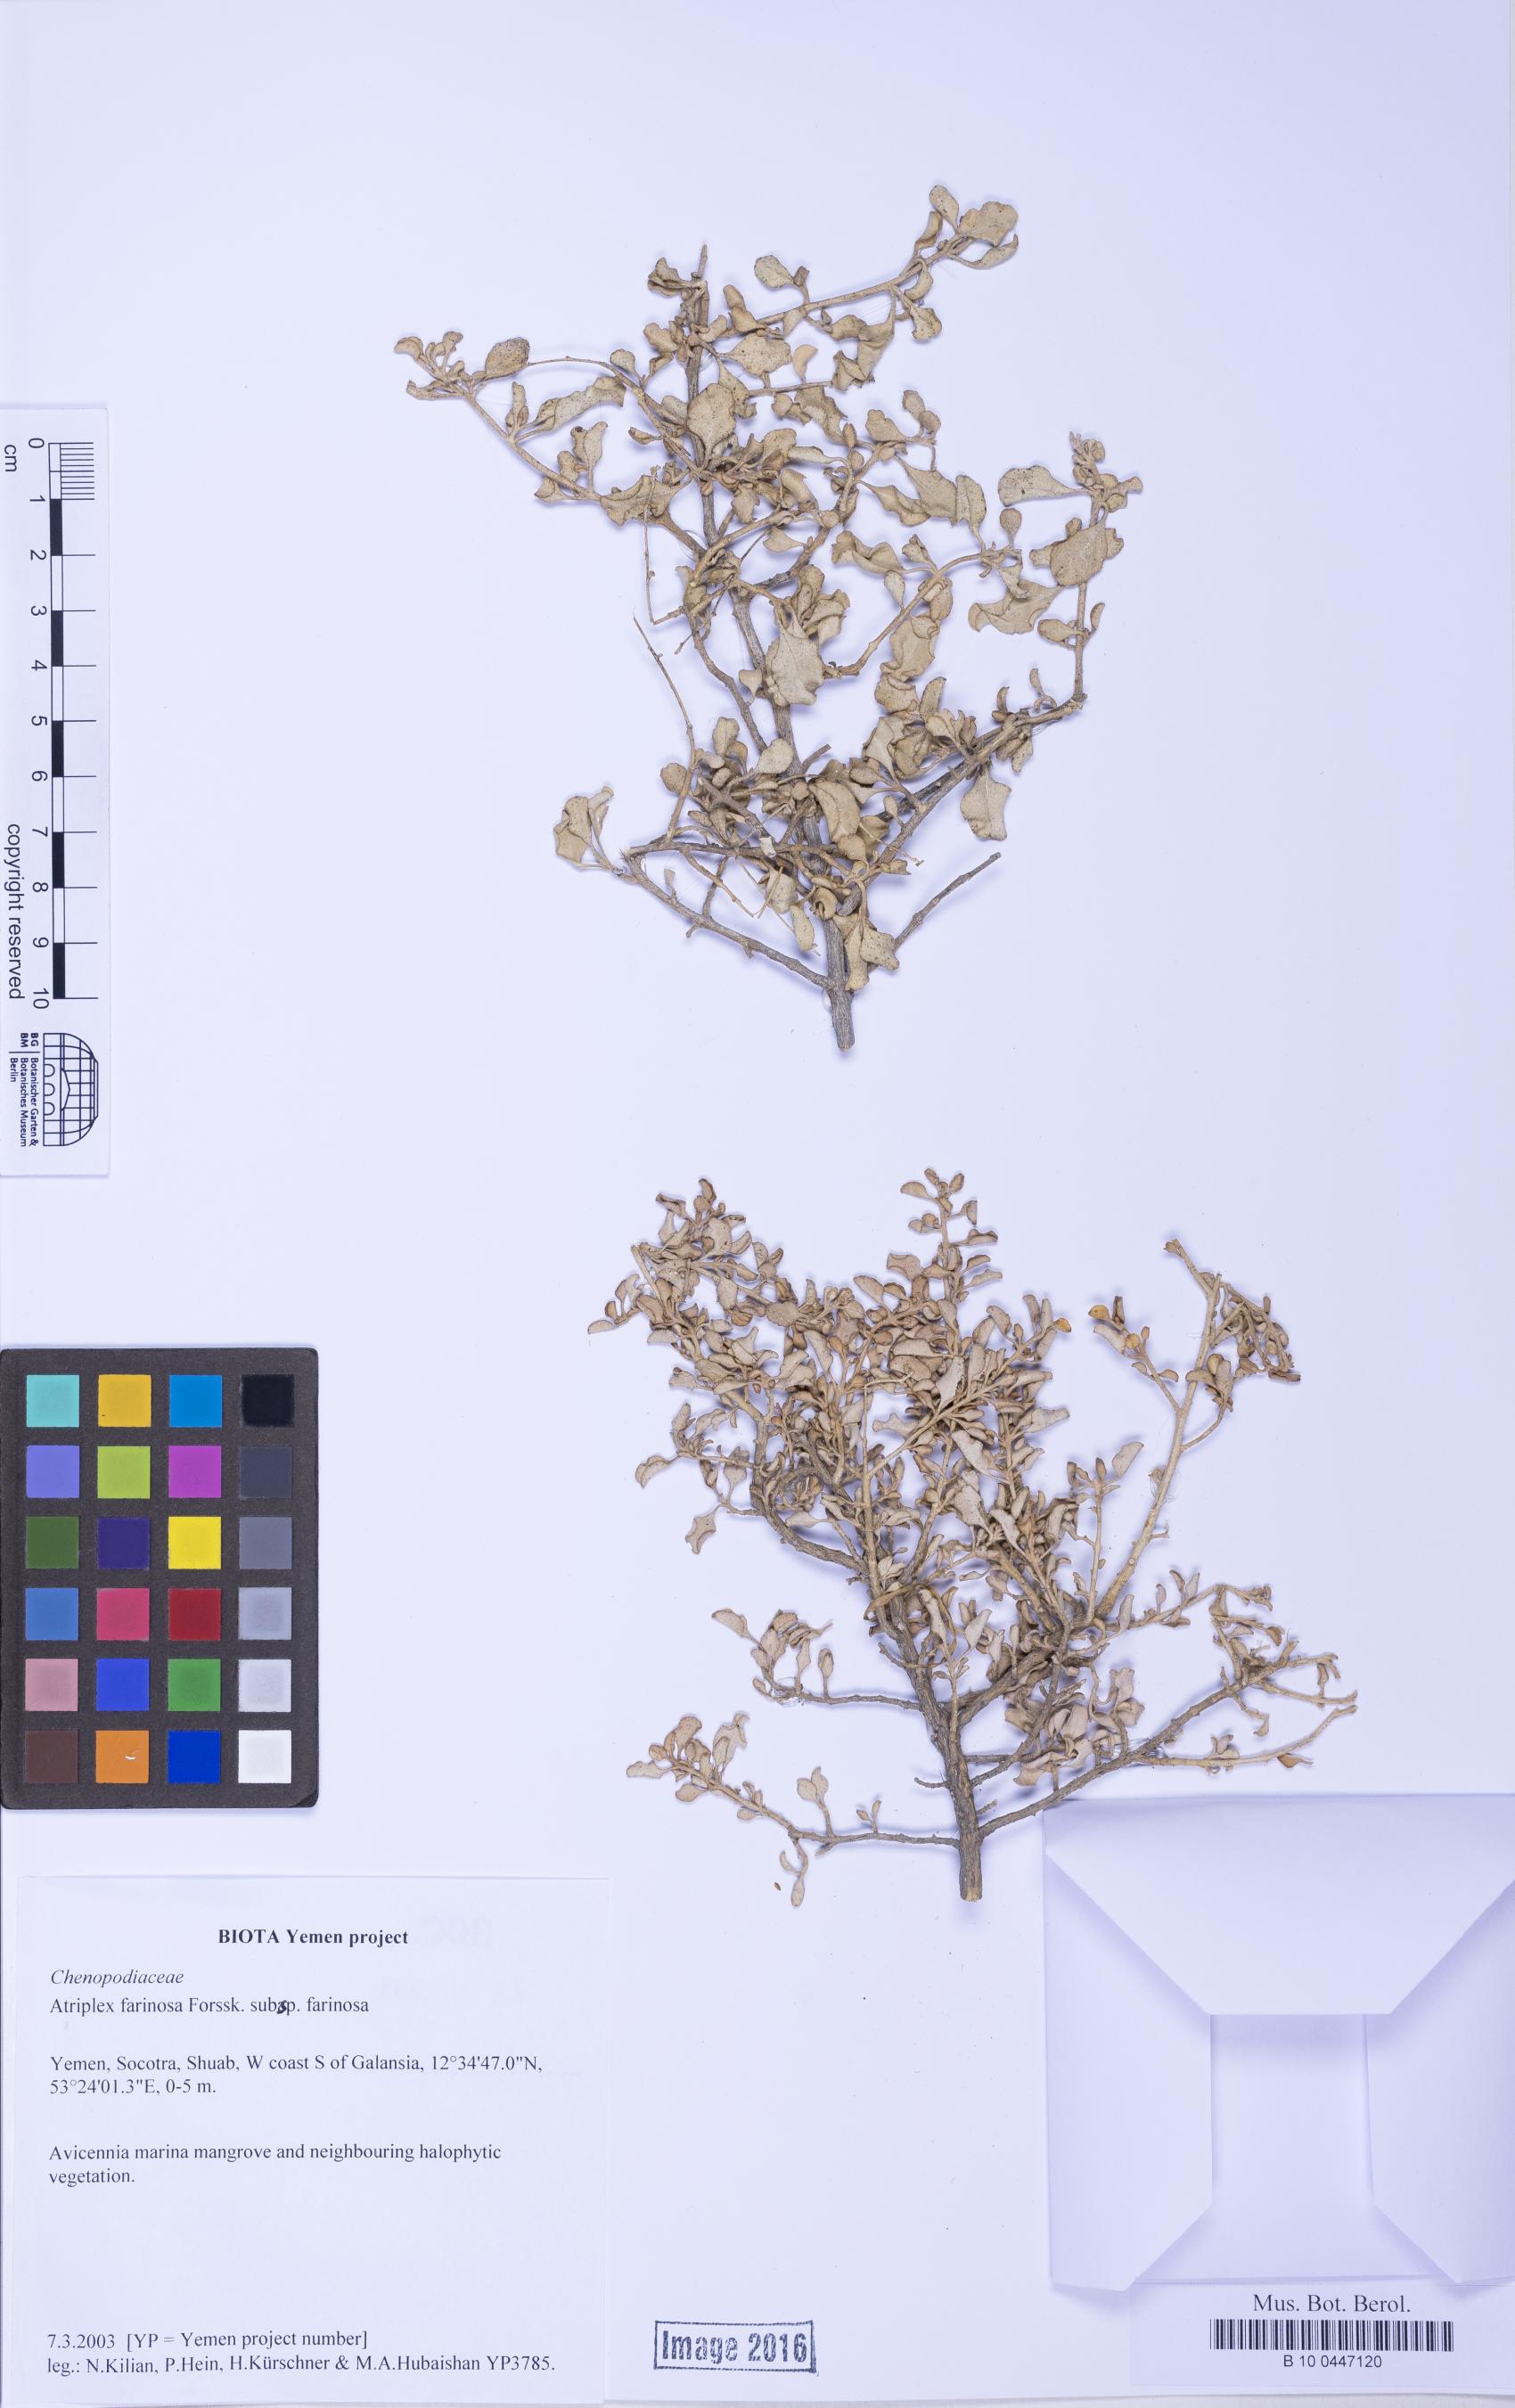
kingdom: Plantae
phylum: Tracheophyta
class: Magnoliopsida
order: Caryophyllales
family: Amaranthaceae
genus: Atriplex
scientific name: Atriplex farinosa
